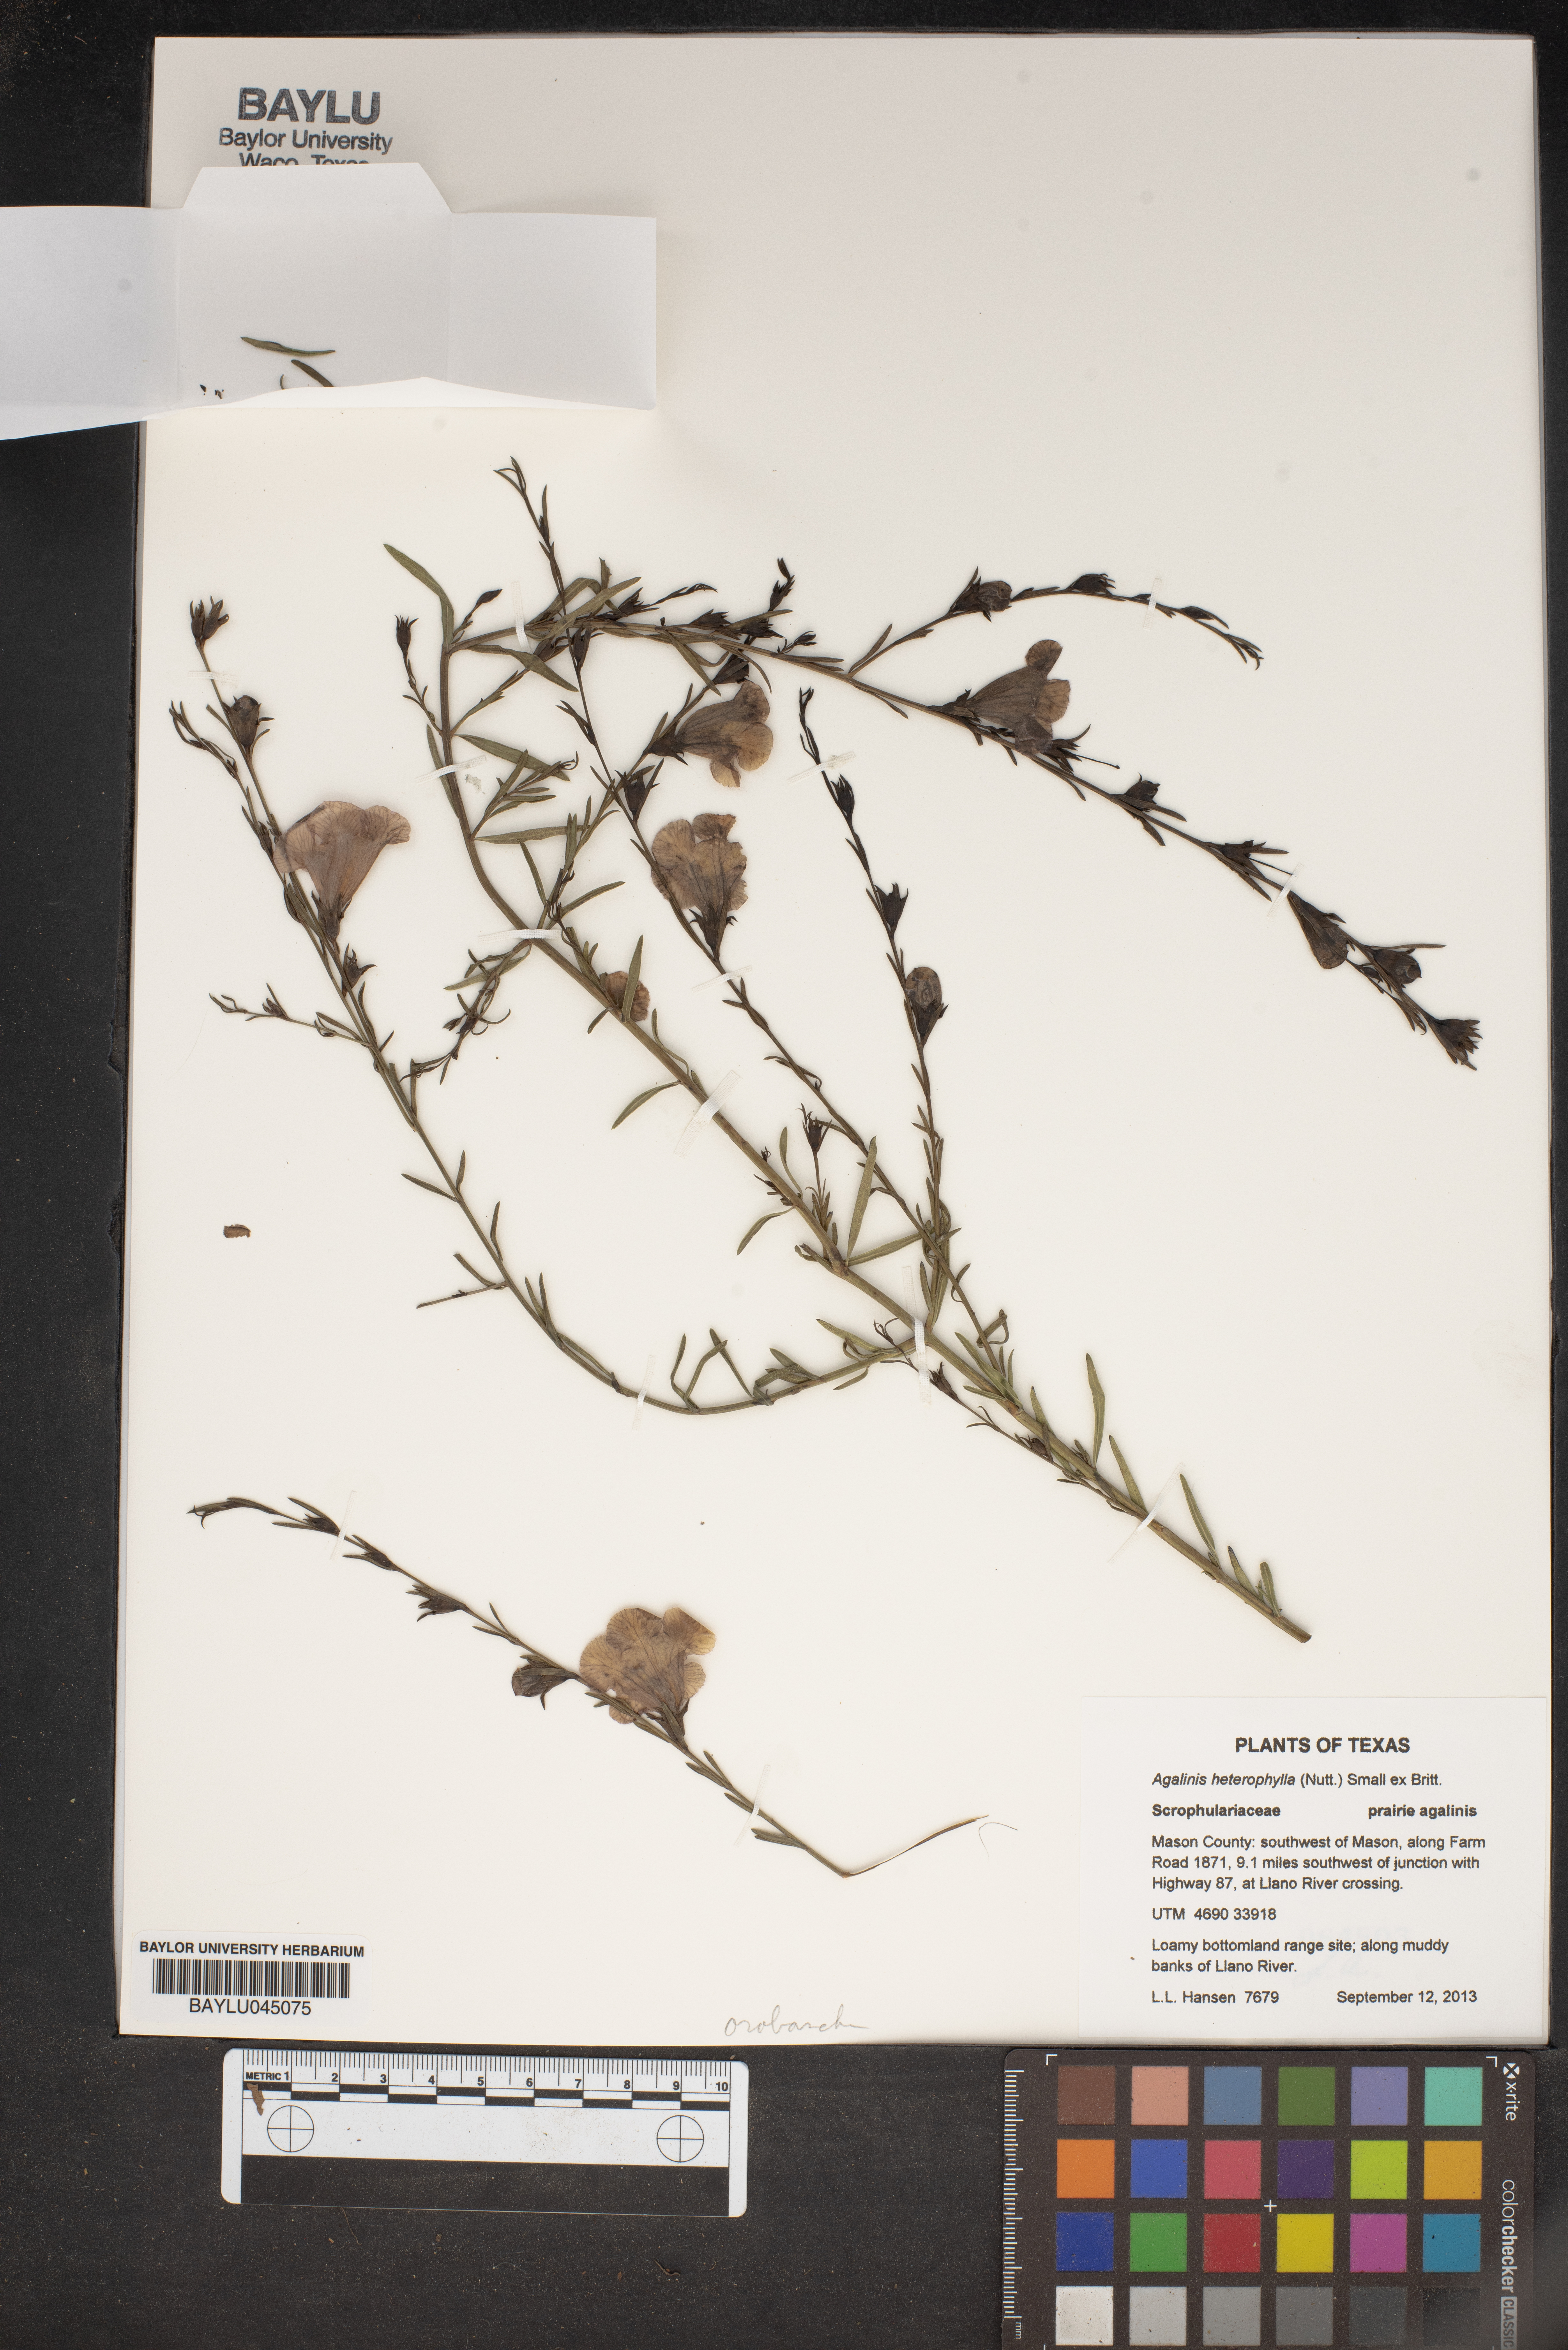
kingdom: Plantae
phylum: Tracheophyta
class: Magnoliopsida
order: Lamiales
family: Orobanchaceae
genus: Agalinis
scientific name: Agalinis heterophylla
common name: Prairie agalinis
